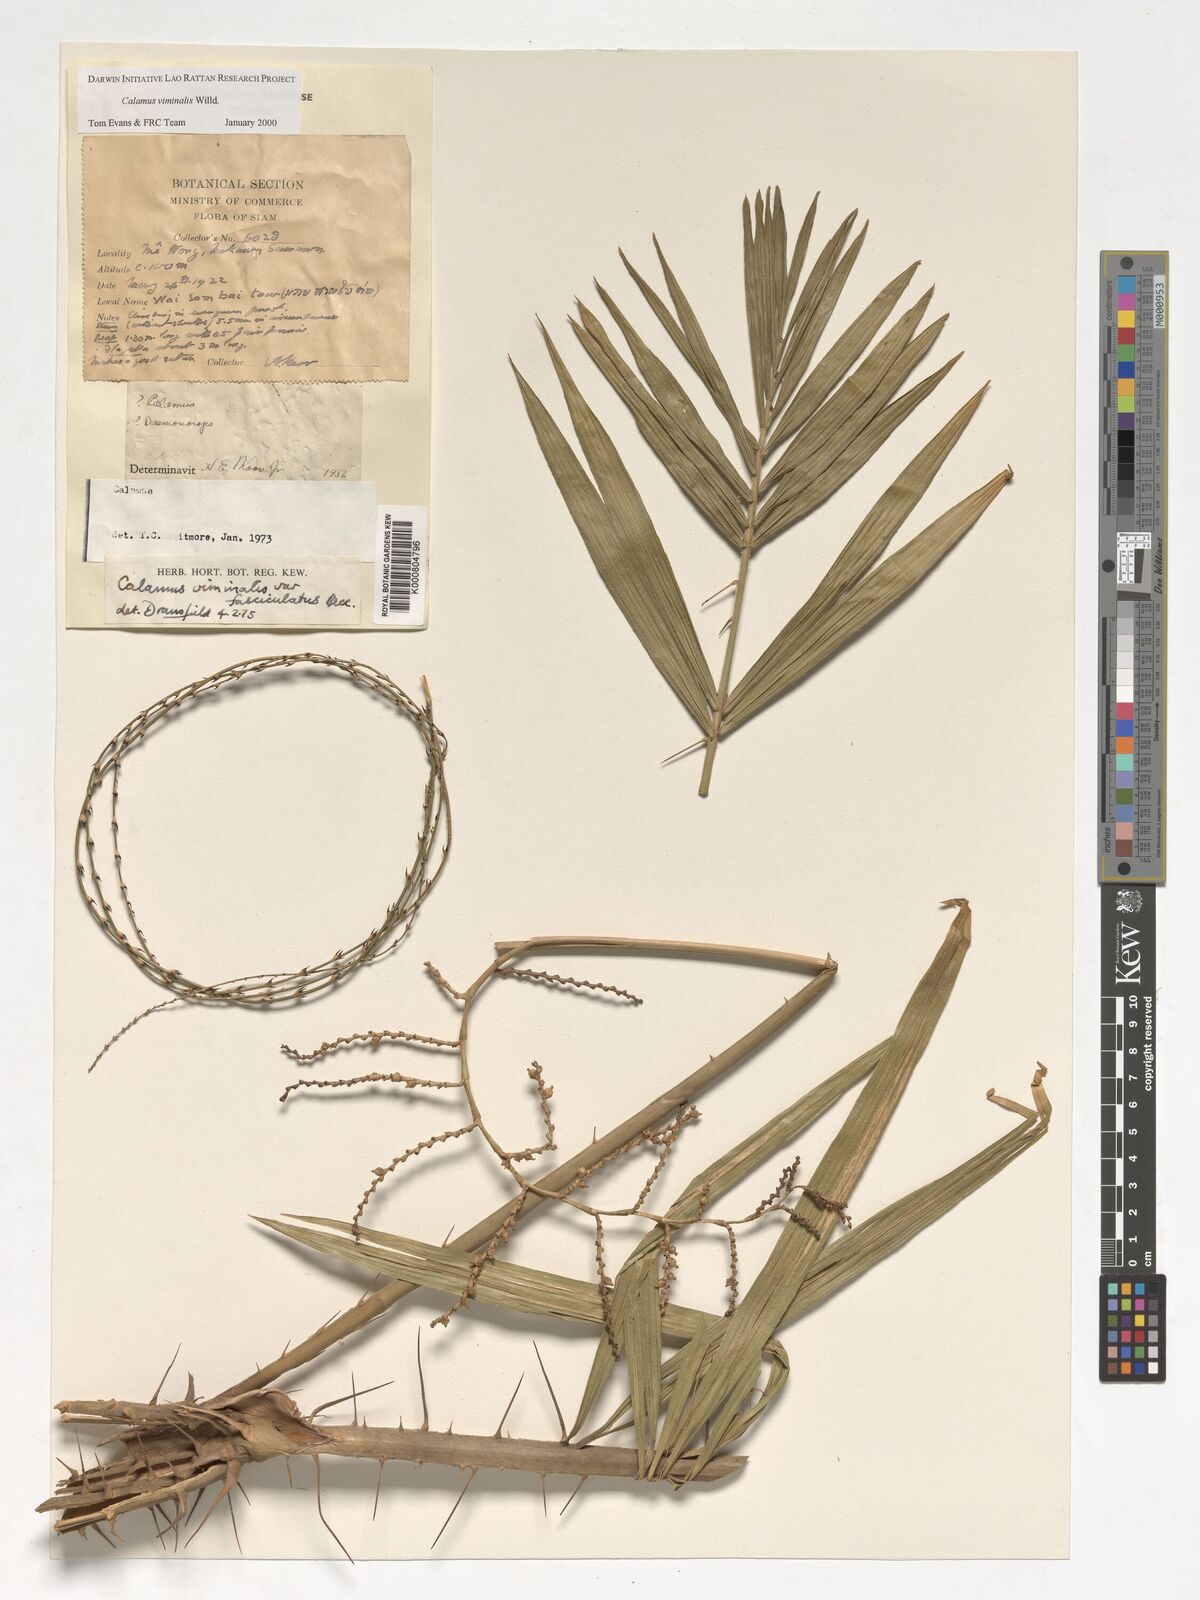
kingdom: Plantae
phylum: Tracheophyta
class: Liliopsida
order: Arecales
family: Arecaceae
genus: Calamus
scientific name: Calamus viminalis
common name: Osier-like rattan palm
